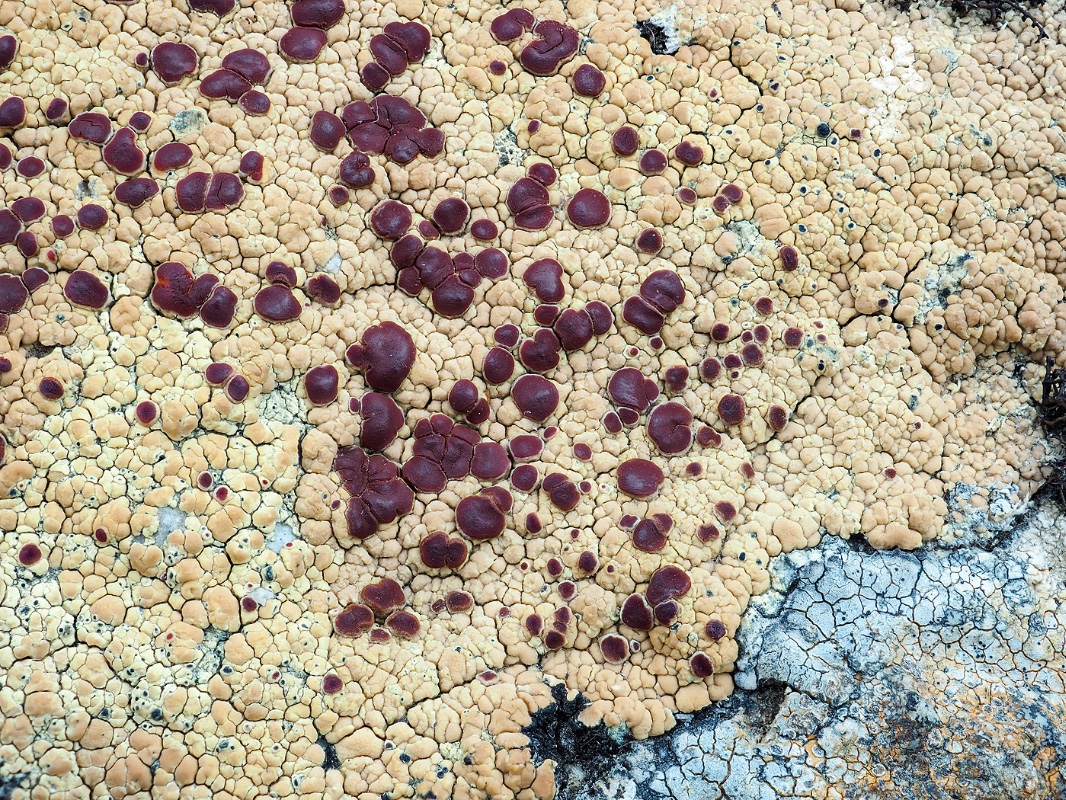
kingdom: Fungi
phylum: Ascomycota
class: Lecanoromycetes
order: Umbilicariales
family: Ophioparmaceae
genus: Ophioparma
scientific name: Ophioparma ventosa
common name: fjeld-blodøjelav
